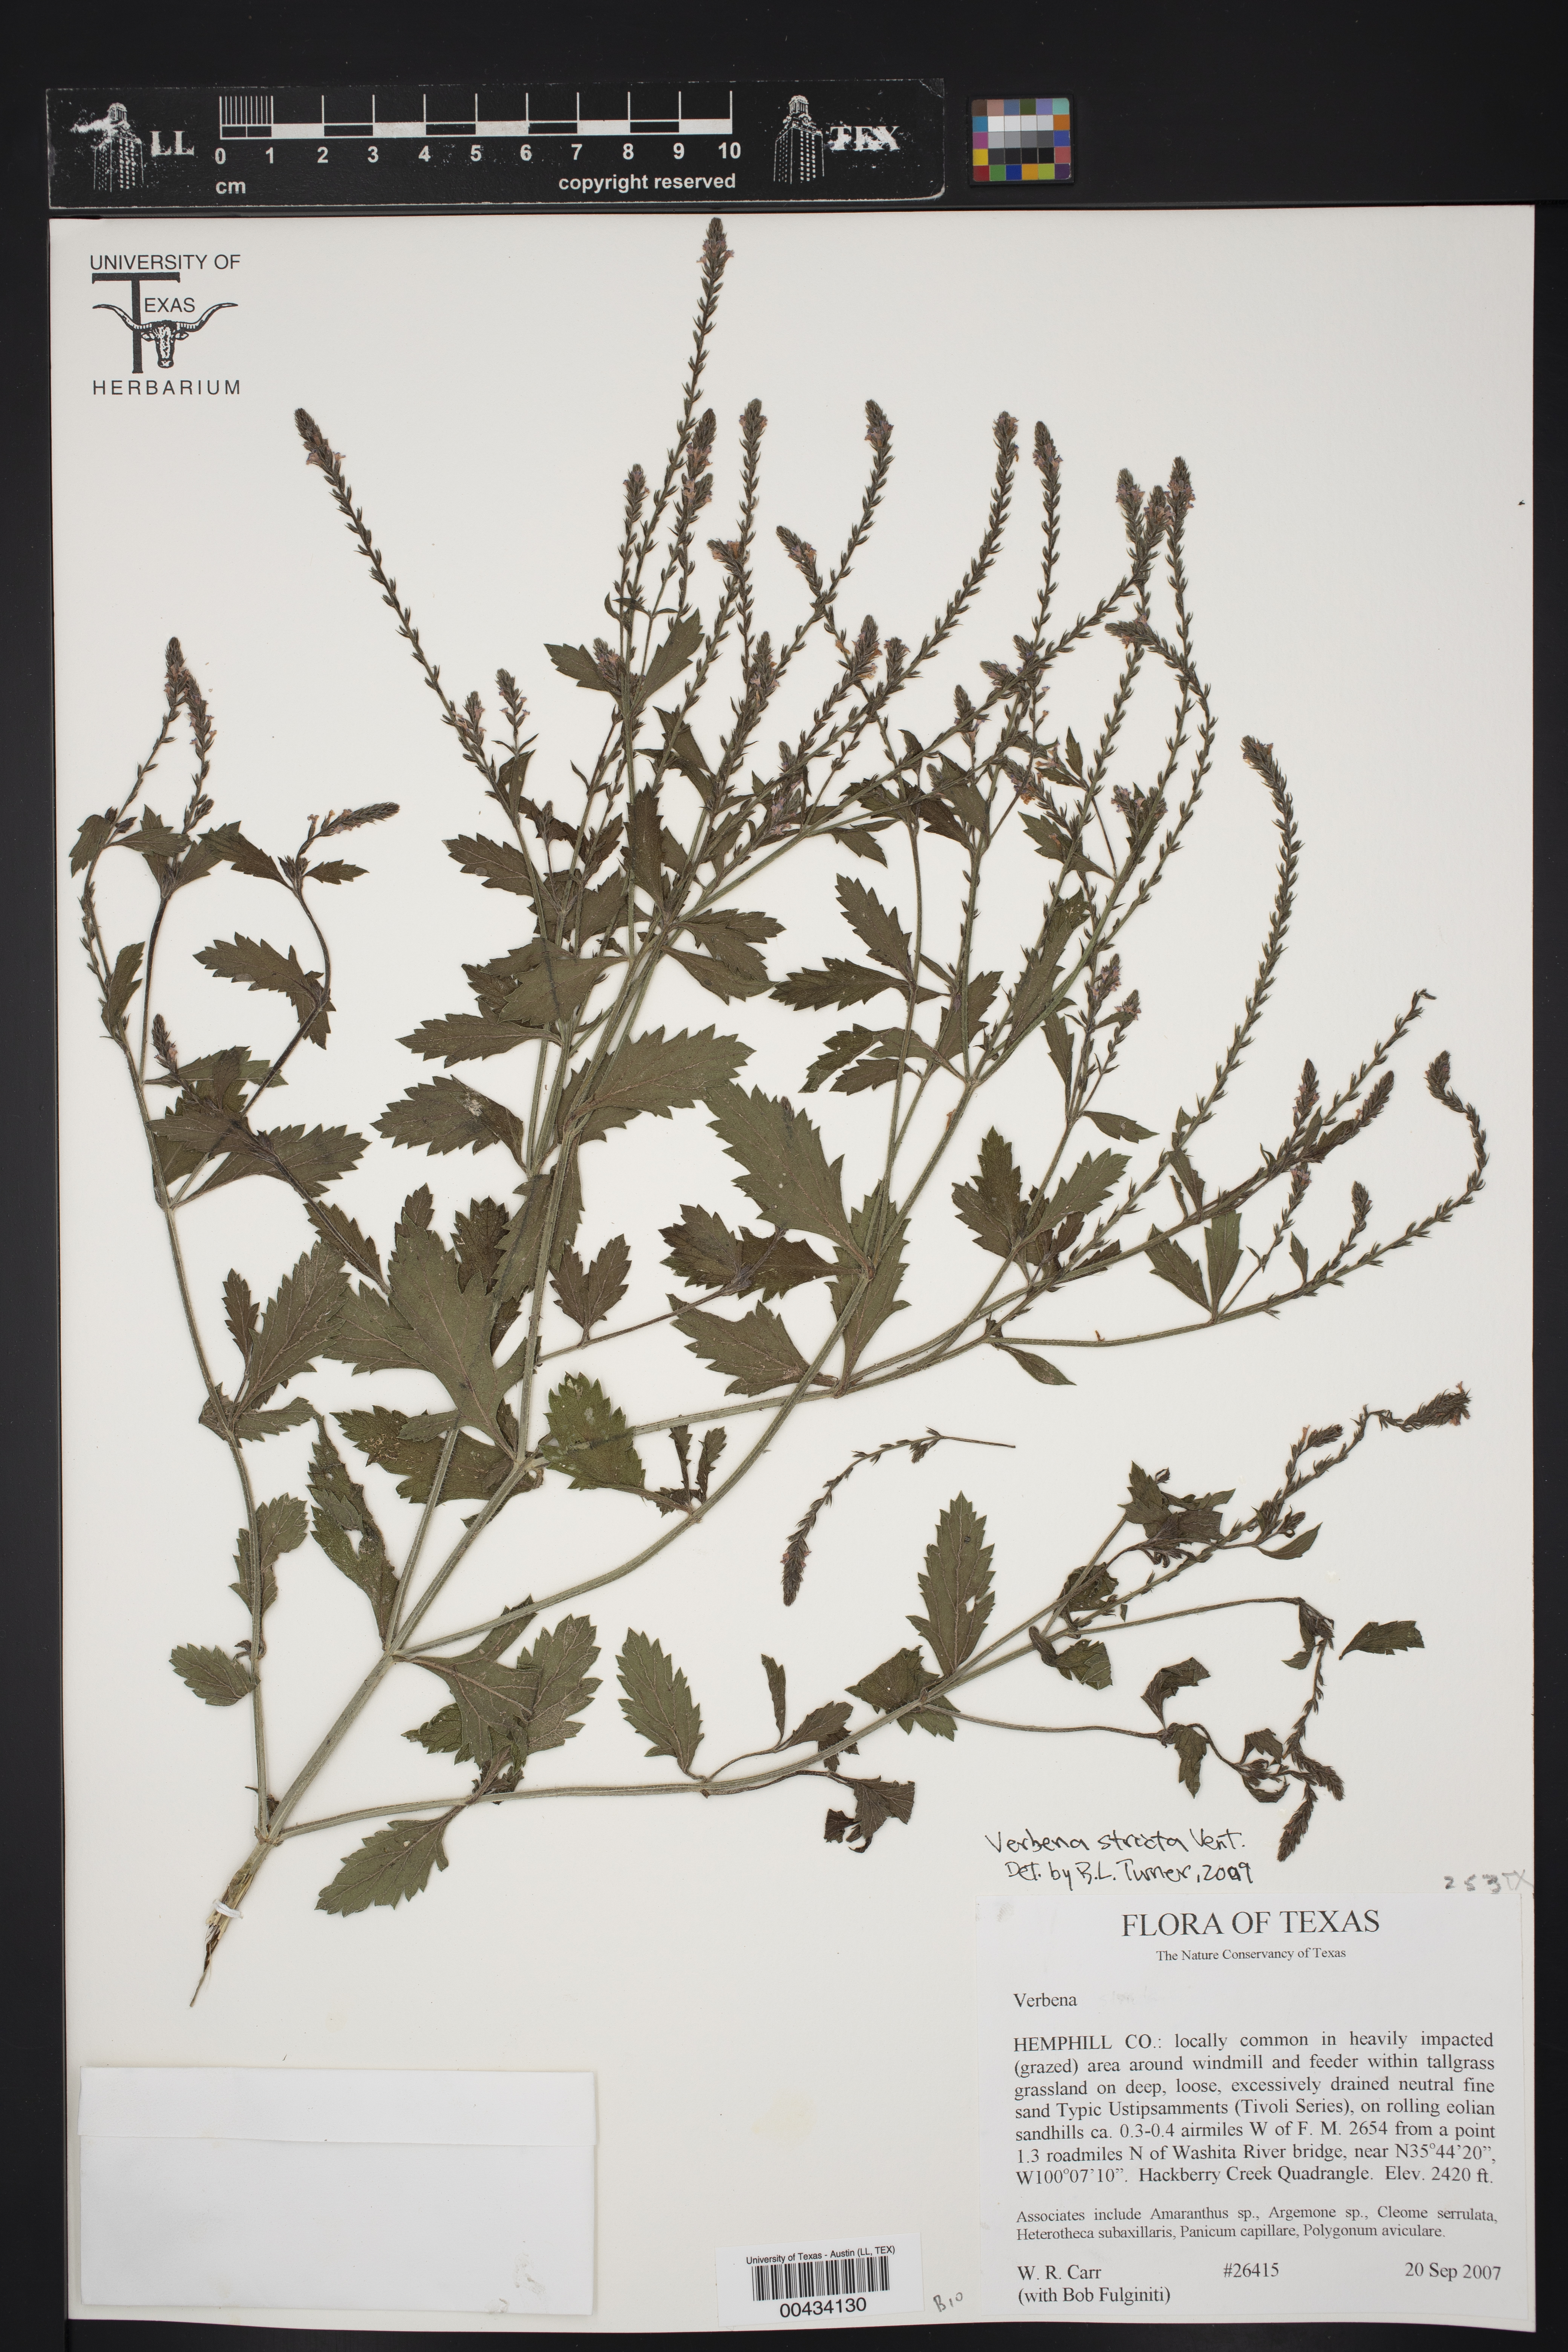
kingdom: Plantae
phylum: Tracheophyta
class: Magnoliopsida
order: Lamiales
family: Verbenaceae
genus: Verbena
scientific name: Verbena stricta
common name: Hoary vervain
